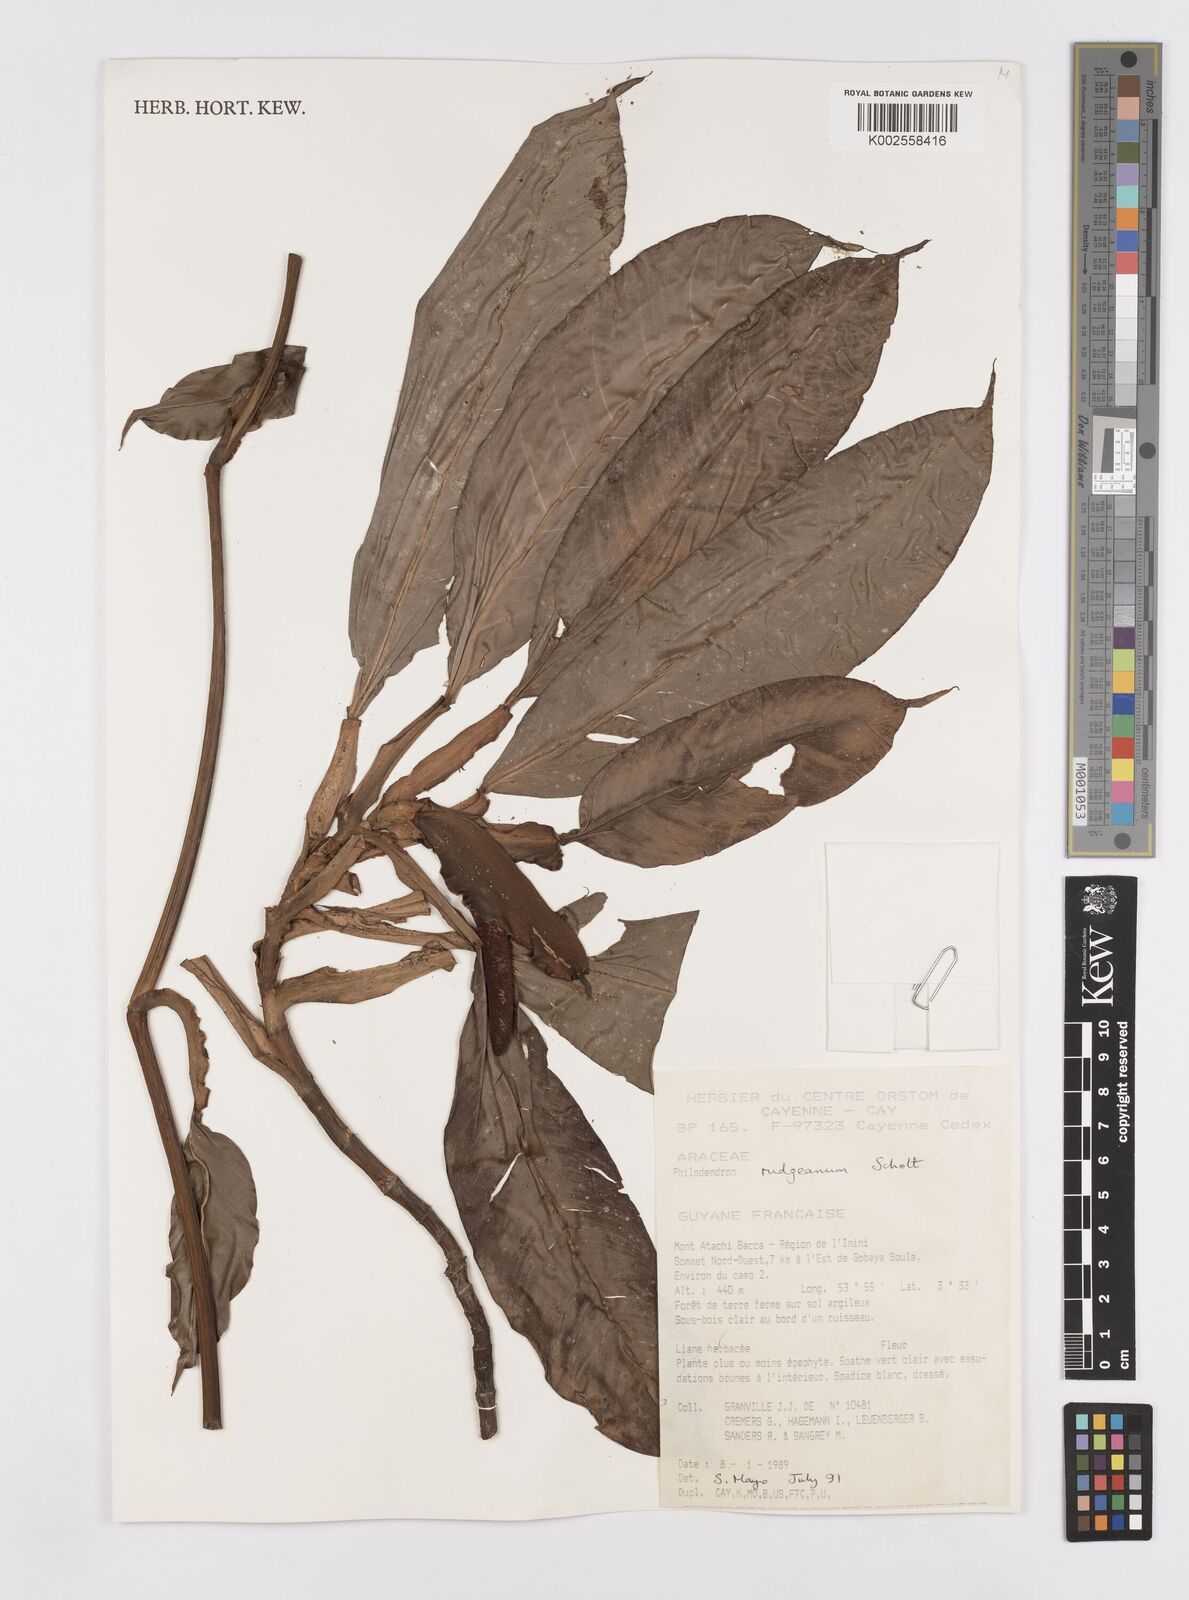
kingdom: Plantae
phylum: Tracheophyta
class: Liliopsida
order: Alismatales
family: Araceae
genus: Philodendron
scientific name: Philodendron rudgeanum
